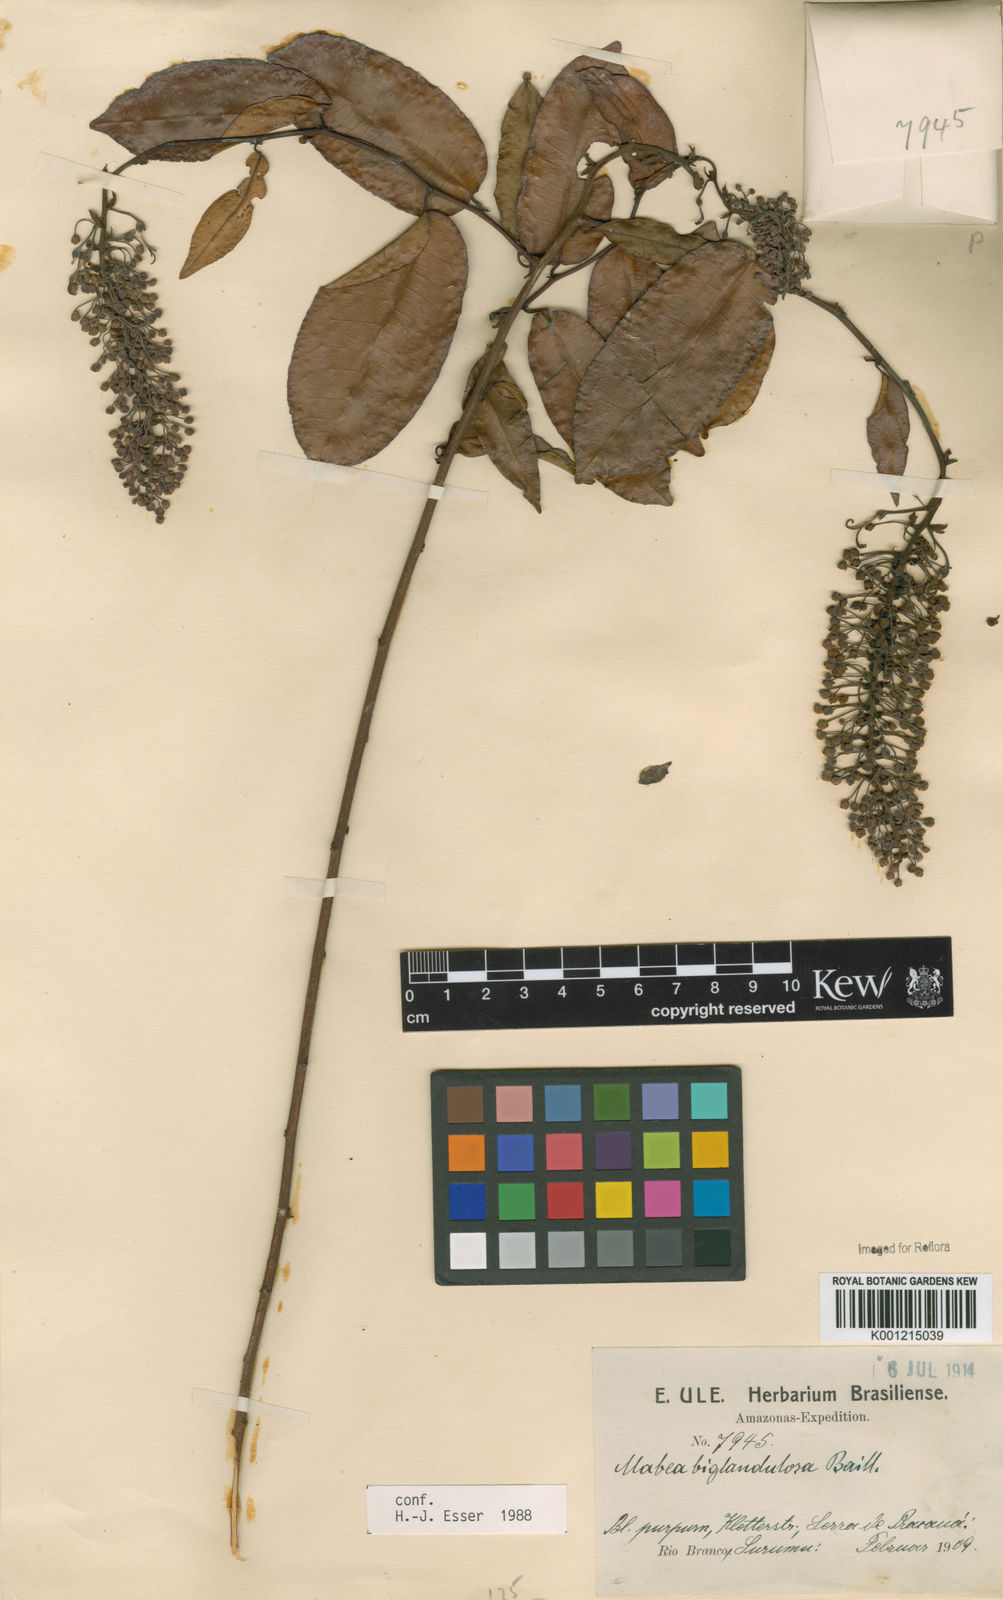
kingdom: Plantae
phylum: Tracheophyta
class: Magnoliopsida
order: Malpighiales
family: Euphorbiaceae
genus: Mabea
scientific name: Mabea
